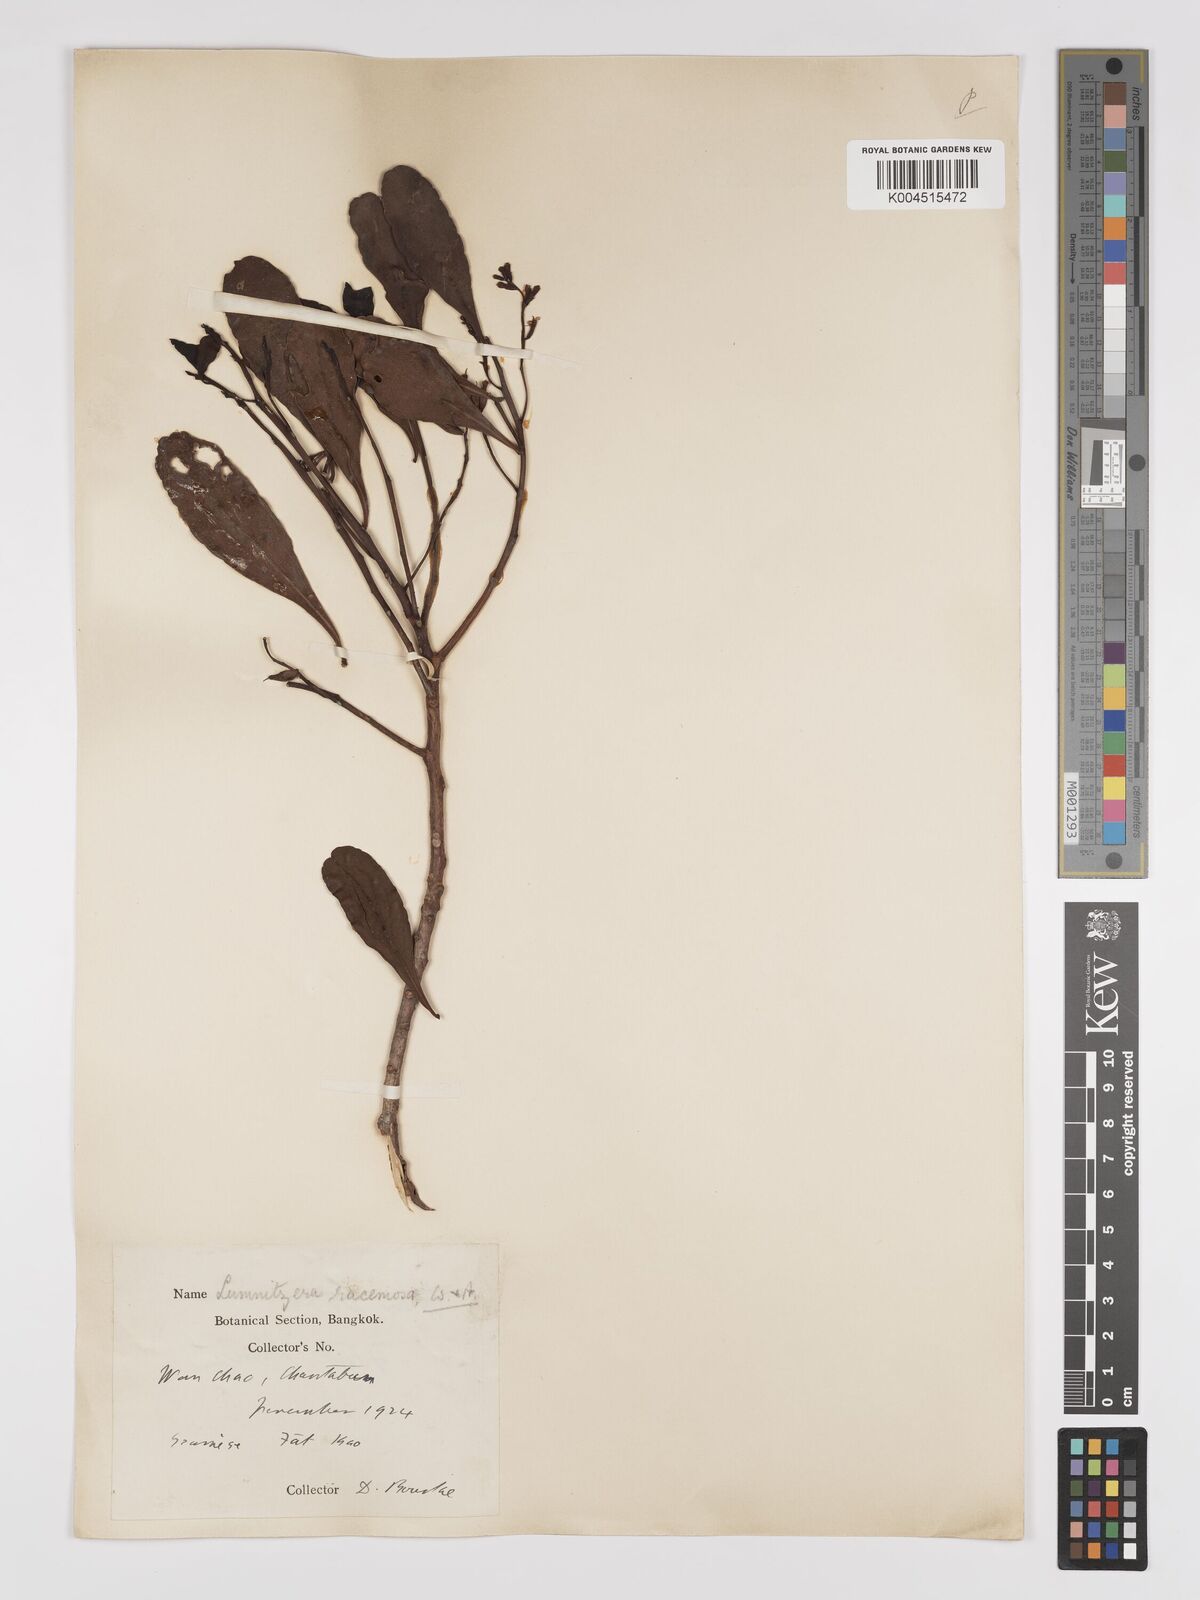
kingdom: Plantae
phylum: Tracheophyta
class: Magnoliopsida
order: Myrtales
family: Combretaceae
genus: Lumnitzera
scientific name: Lumnitzera racemosa
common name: White-flowered black mangrove
